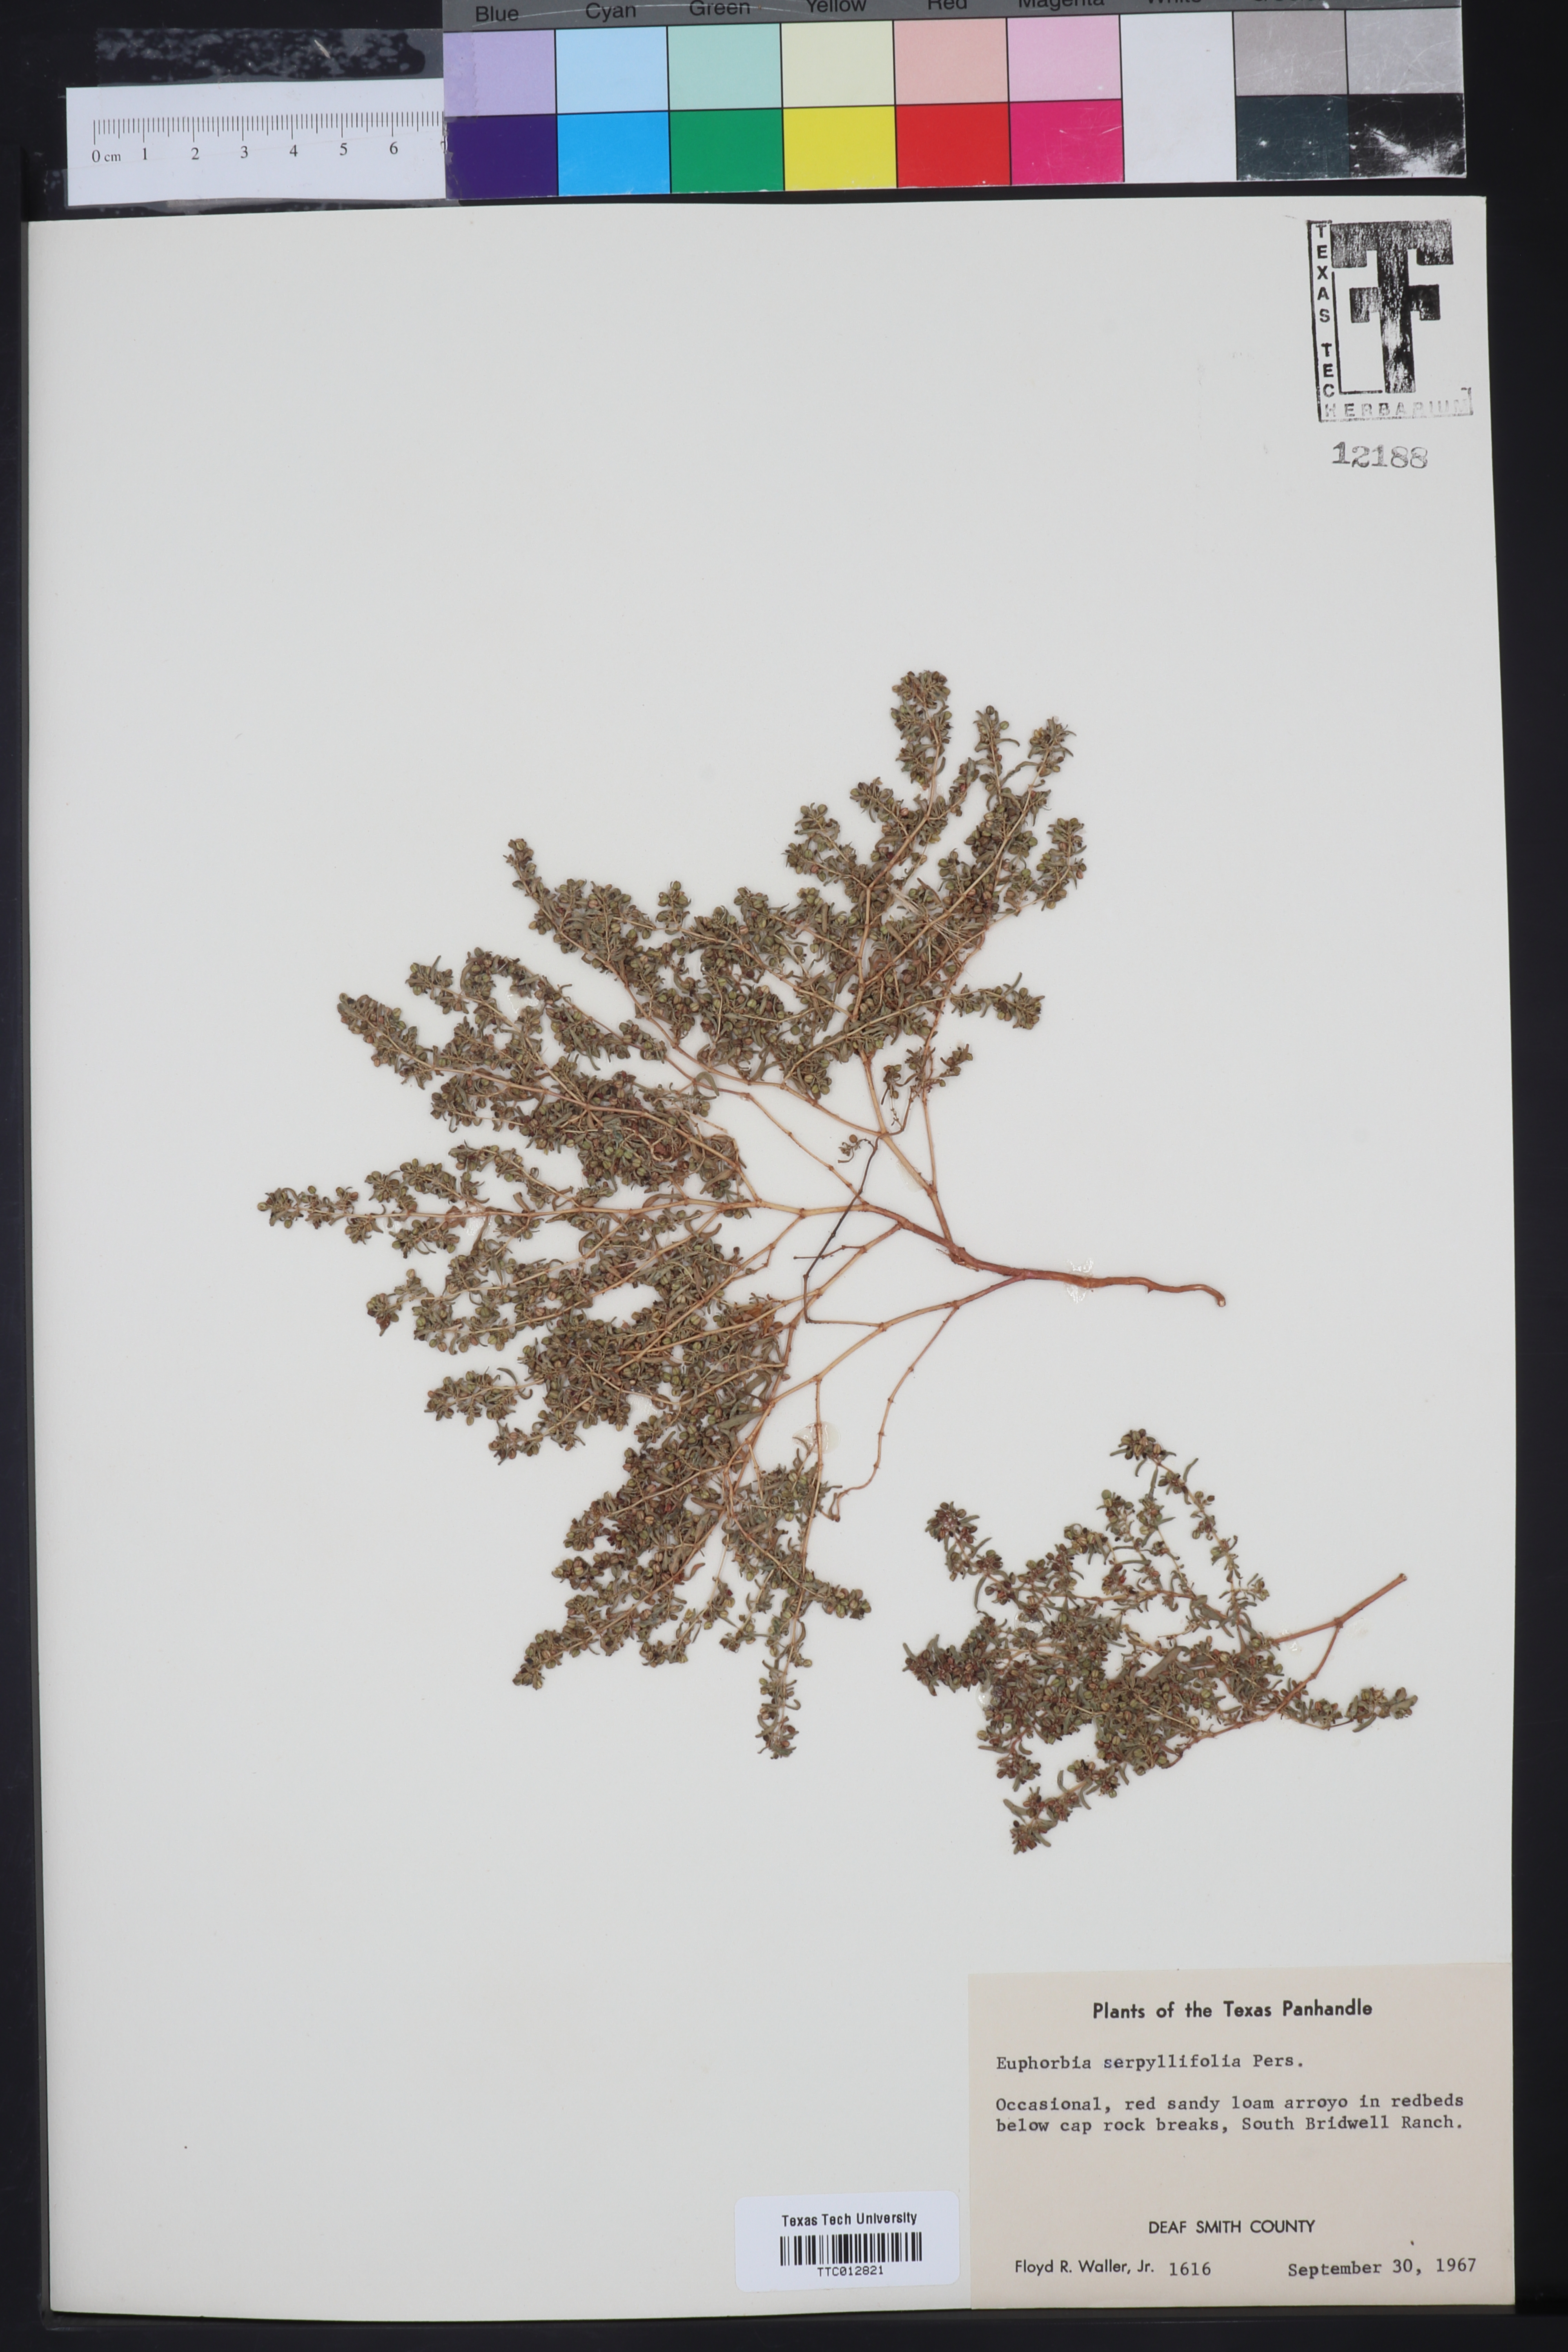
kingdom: Plantae
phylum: Tracheophyta
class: Magnoliopsida
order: Malpighiales
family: Euphorbiaceae
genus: Euphorbia
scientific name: Euphorbia serpillifolia
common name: Thyme-leaf spurge
